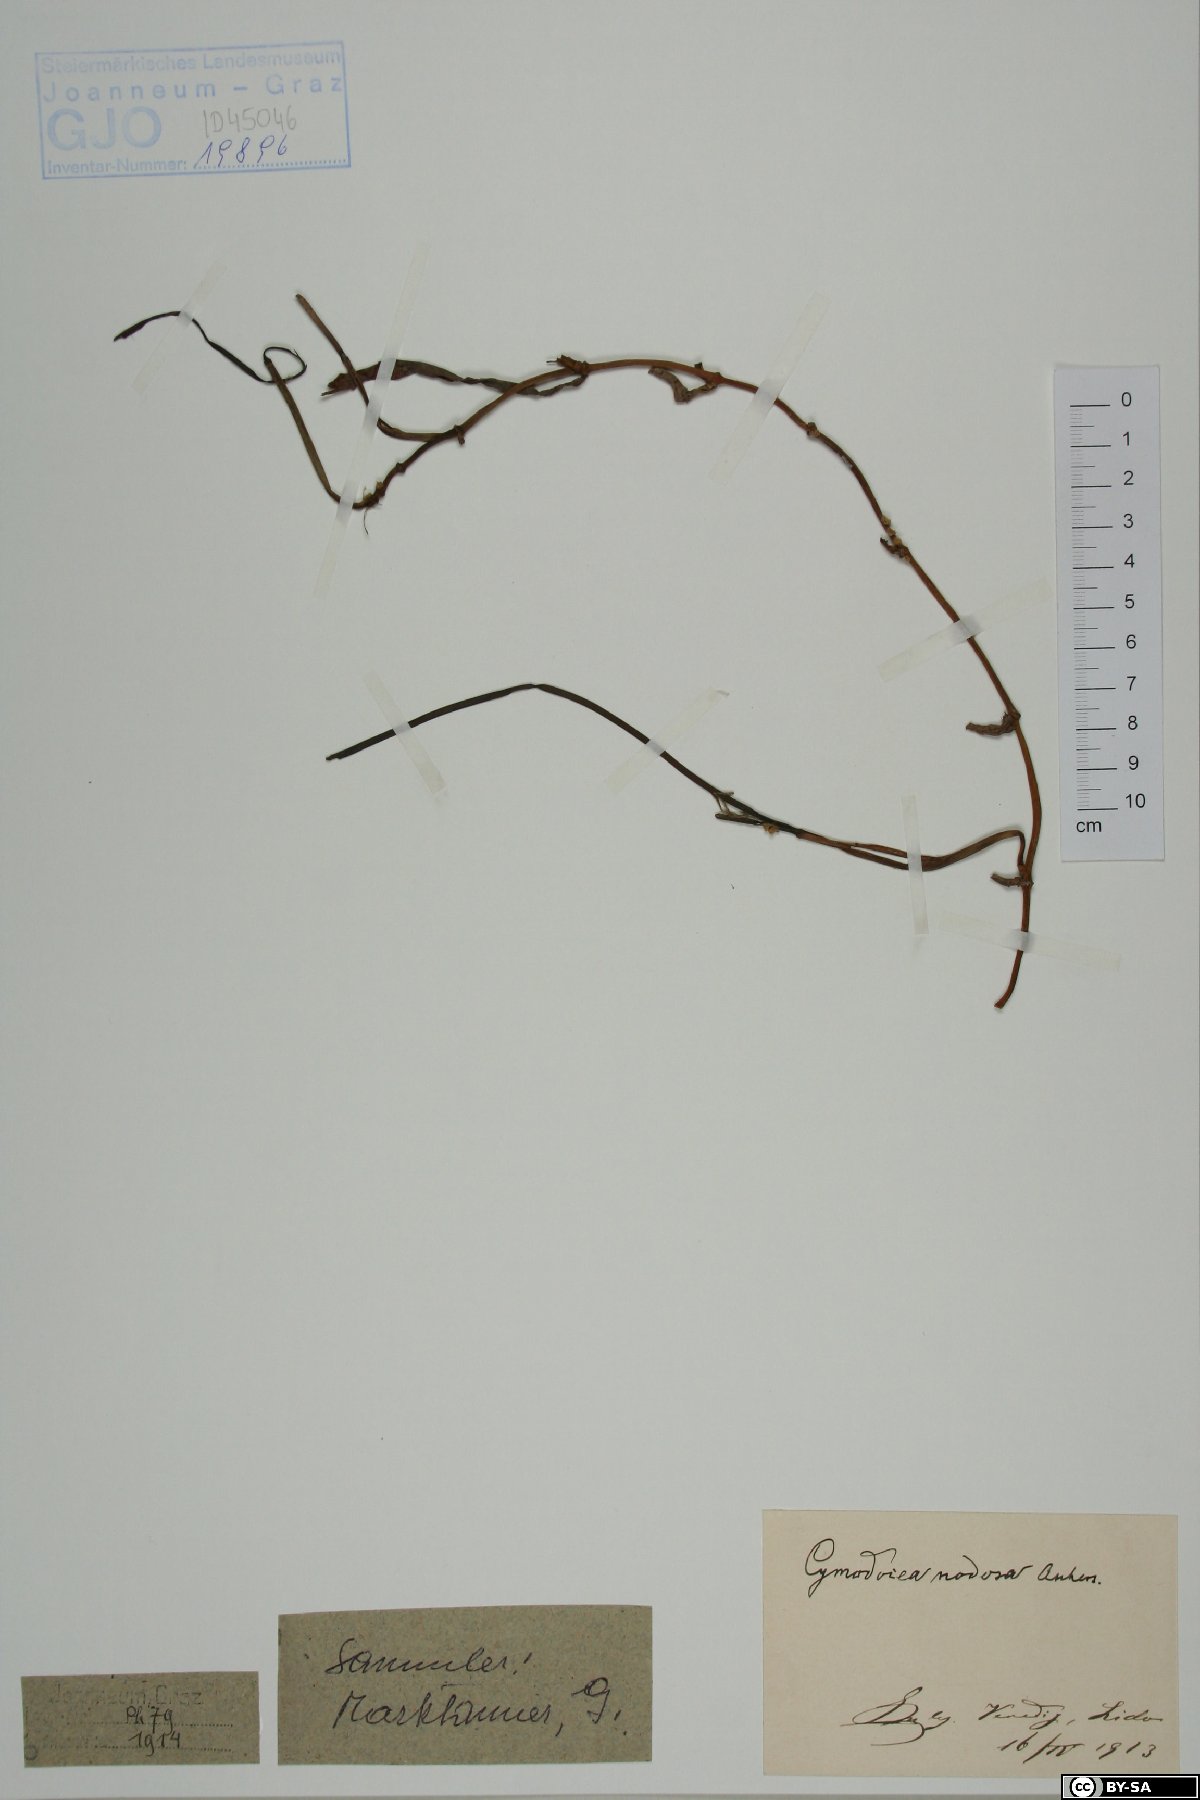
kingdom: Plantae
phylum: Tracheophyta
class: Liliopsida
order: Alismatales
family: Cymodoceaceae
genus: Cymodocea
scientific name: Cymodocea nodosa
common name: Slender seagrass
